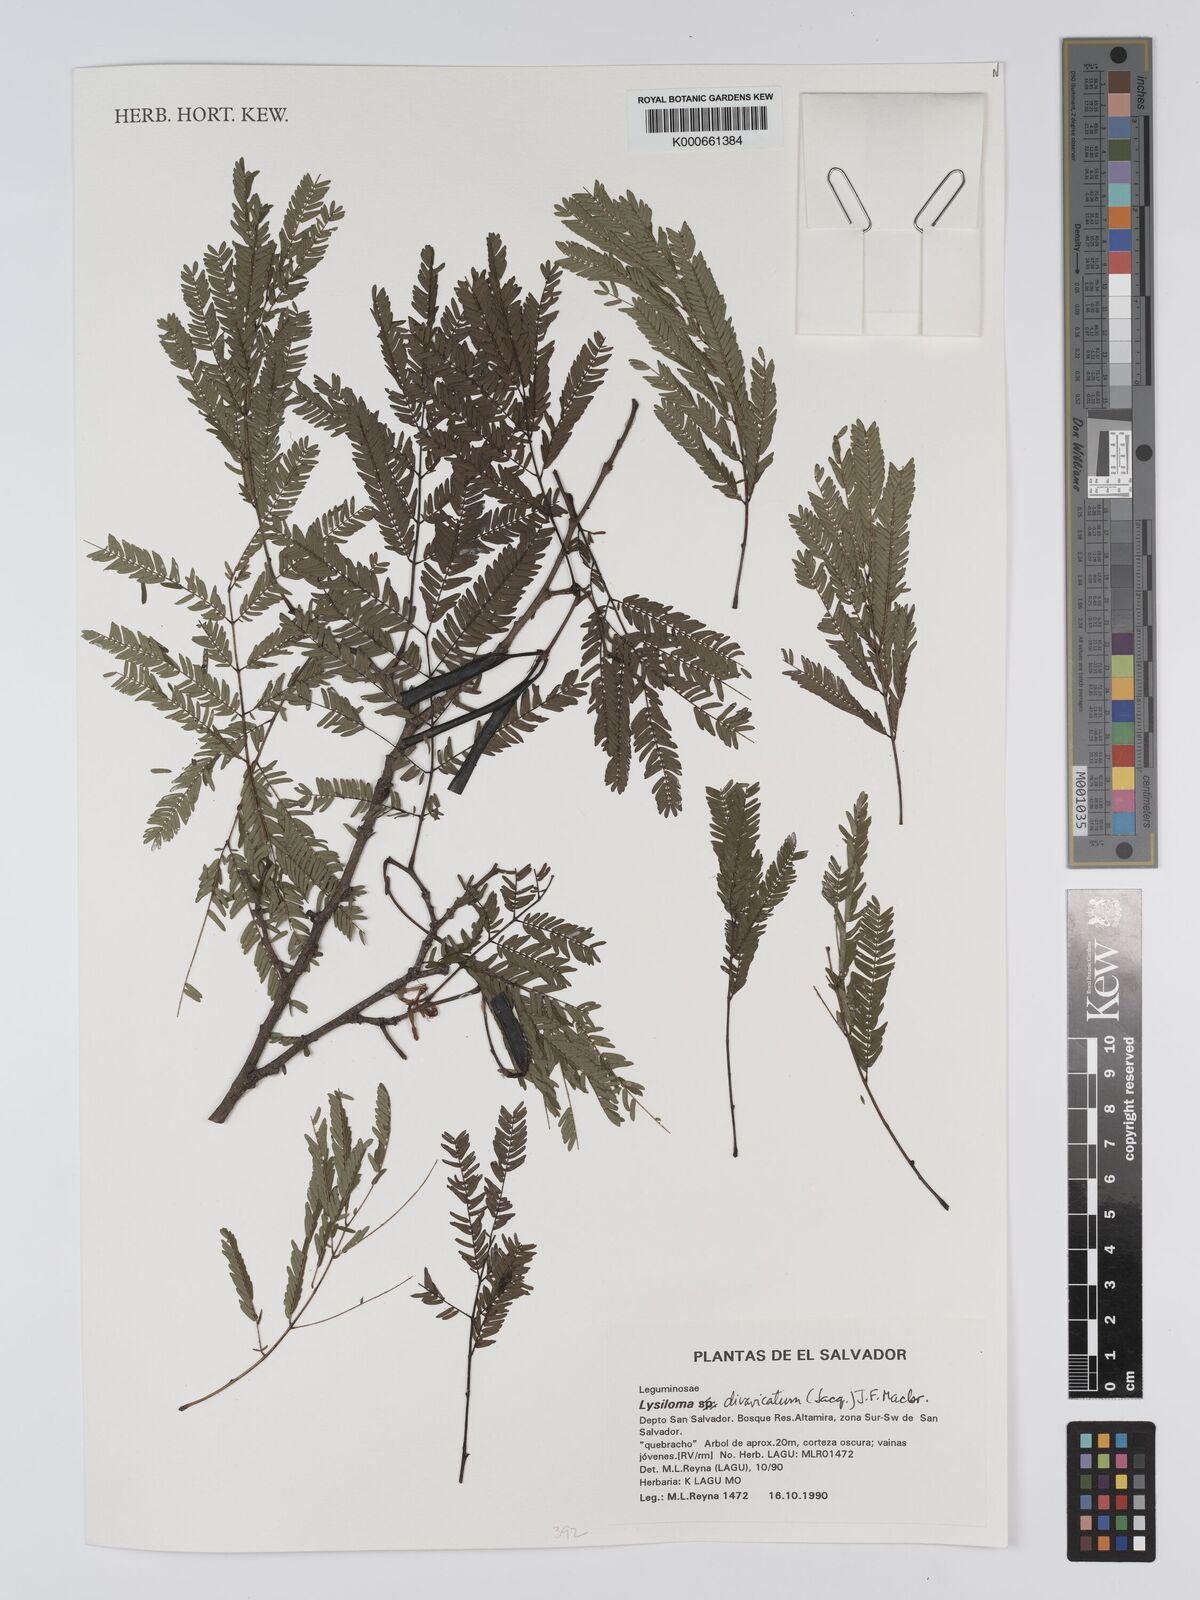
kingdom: Plantae
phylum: Tracheophyta
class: Magnoliopsida
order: Fabales
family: Fabaceae
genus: Lysiloma
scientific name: Lysiloma divaricatum
